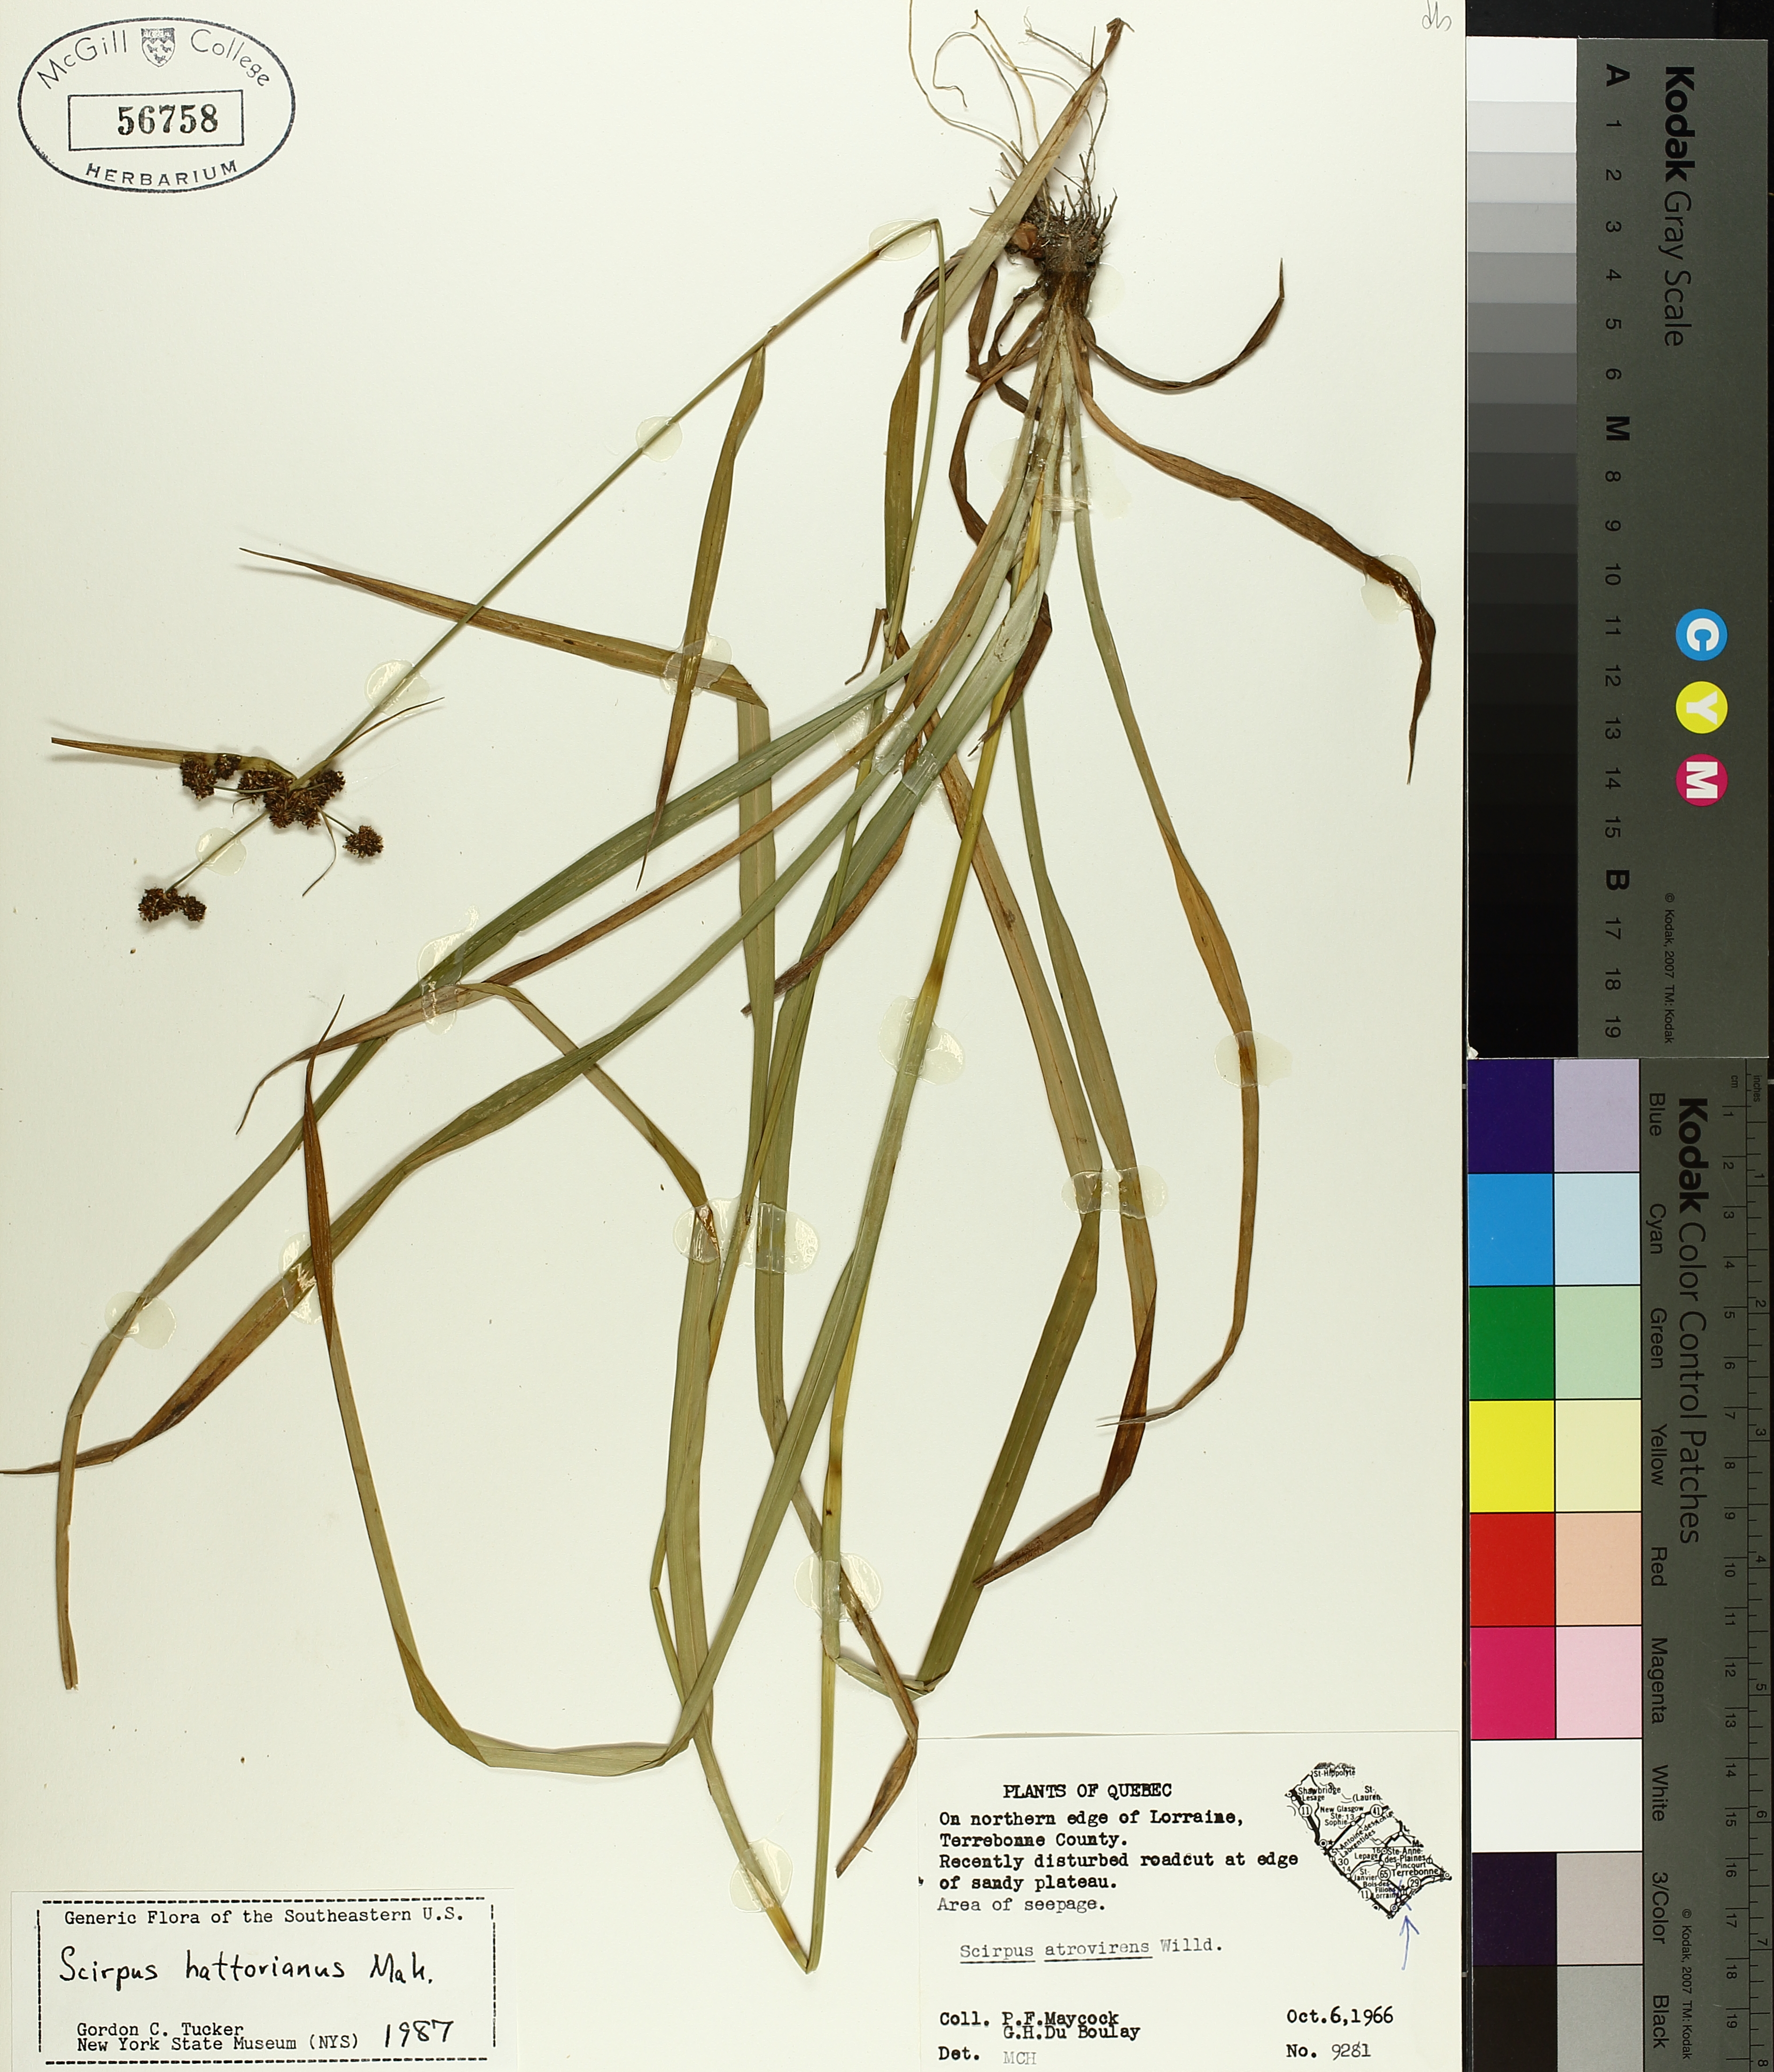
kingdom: Plantae
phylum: Tracheophyta
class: Liliopsida
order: Poales
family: Cyperaceae
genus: Scirpus
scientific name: Scirpus hattorianus
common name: Early dark-green bulrush
